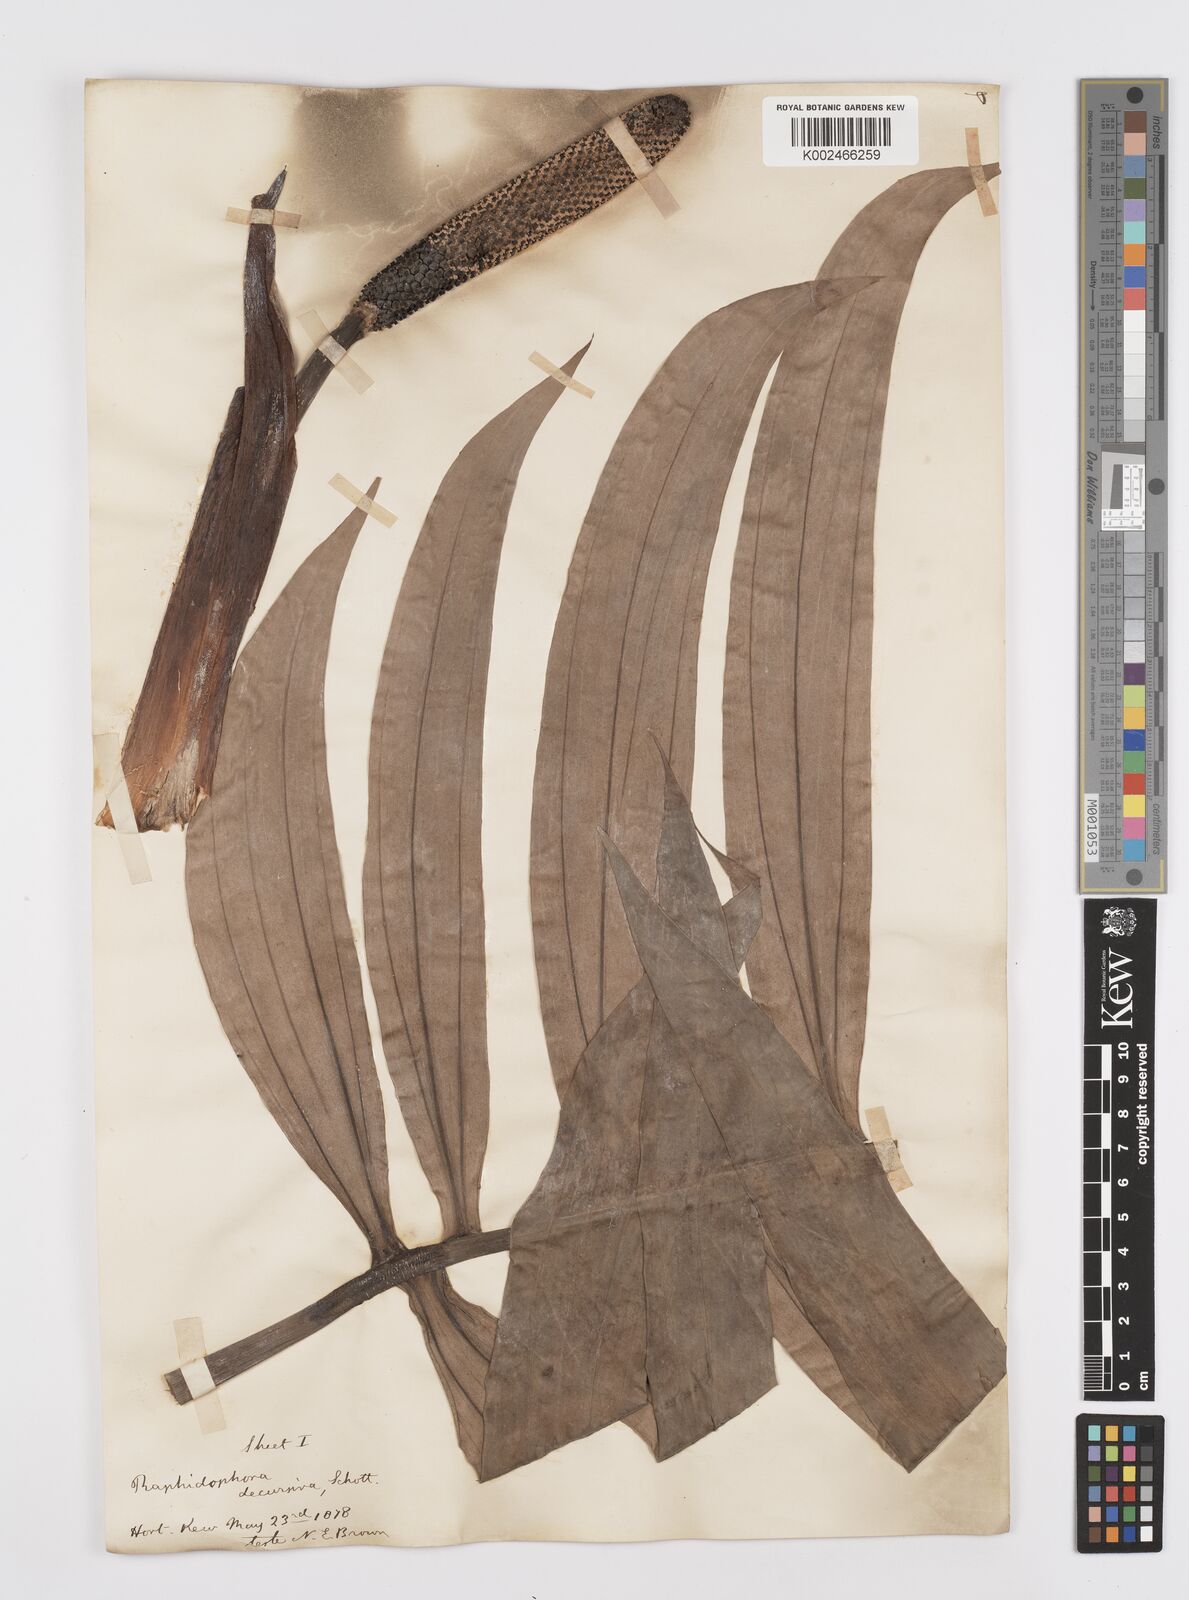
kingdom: Plantae
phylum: Tracheophyta
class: Liliopsida
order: Alismatales
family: Araceae
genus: Rhaphidophora
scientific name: Rhaphidophora decursiva
